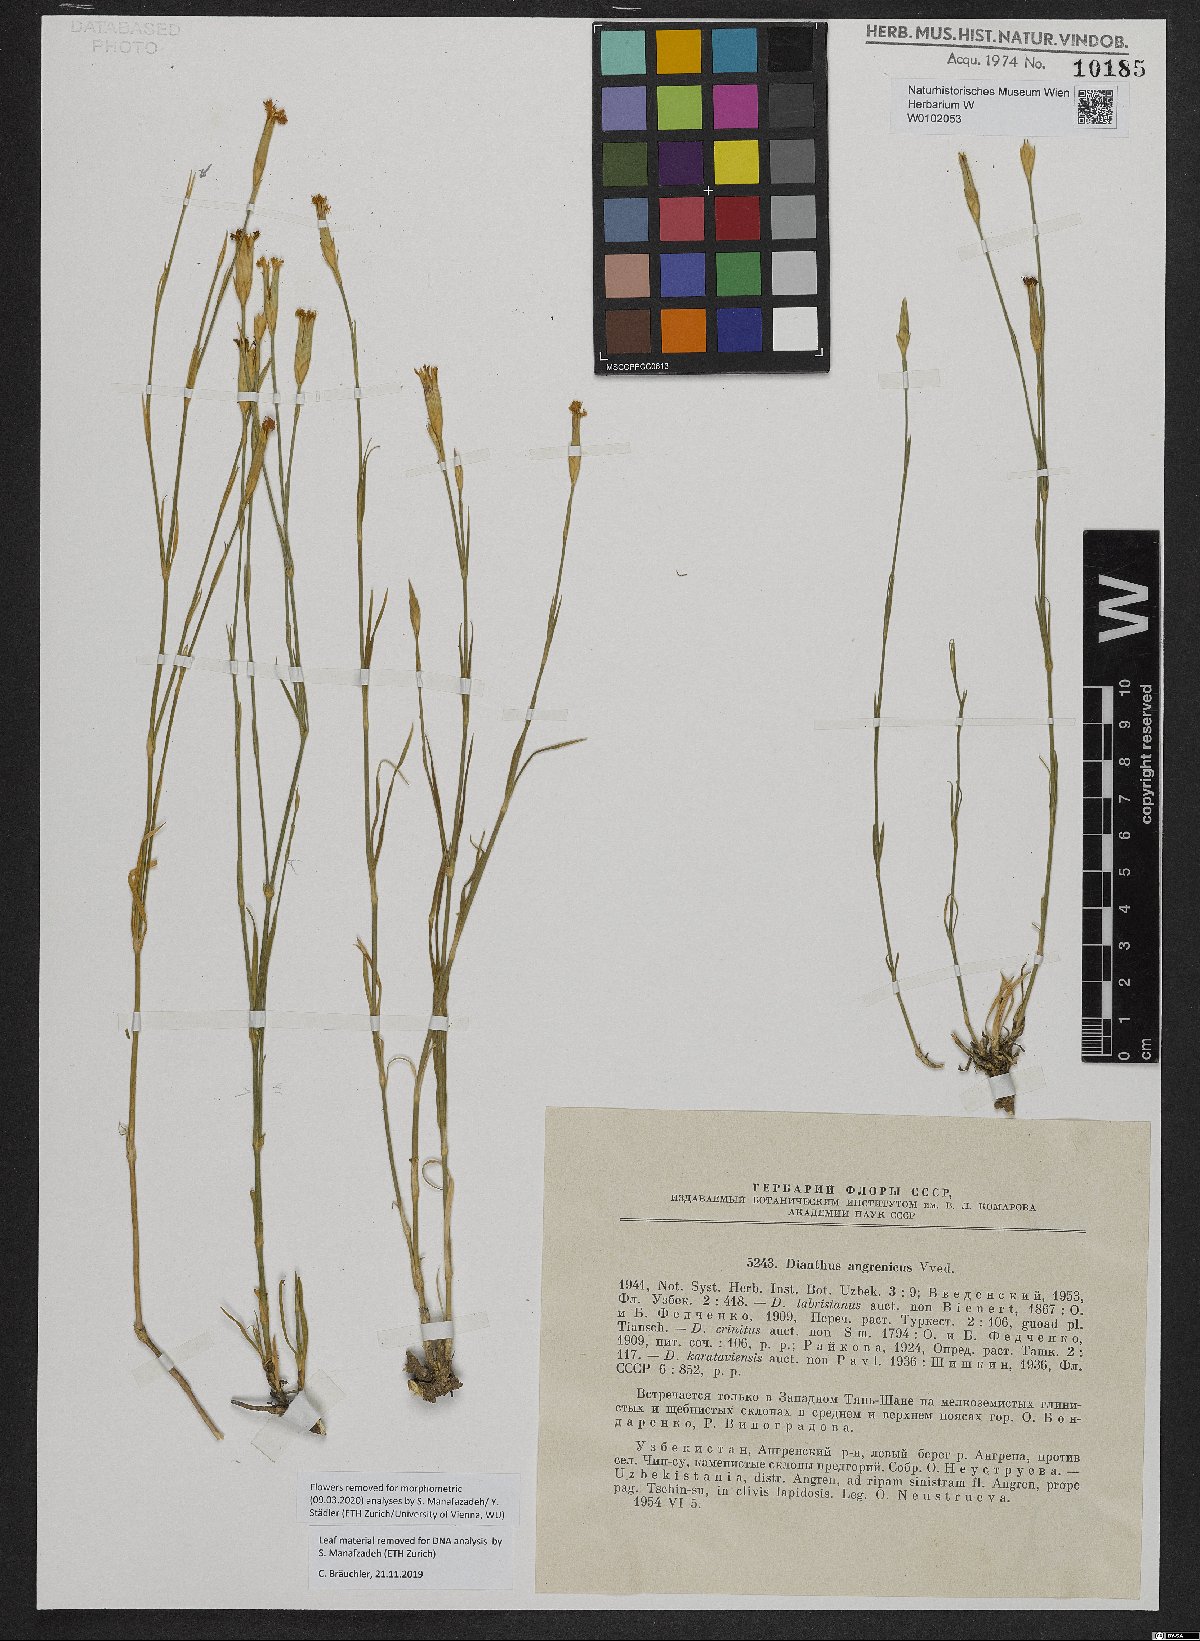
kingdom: Plantae
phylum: Tracheophyta
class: Magnoliopsida
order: Caryophyllales
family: Caryophyllaceae
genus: Dianthus
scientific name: Dianthus angrenicus
